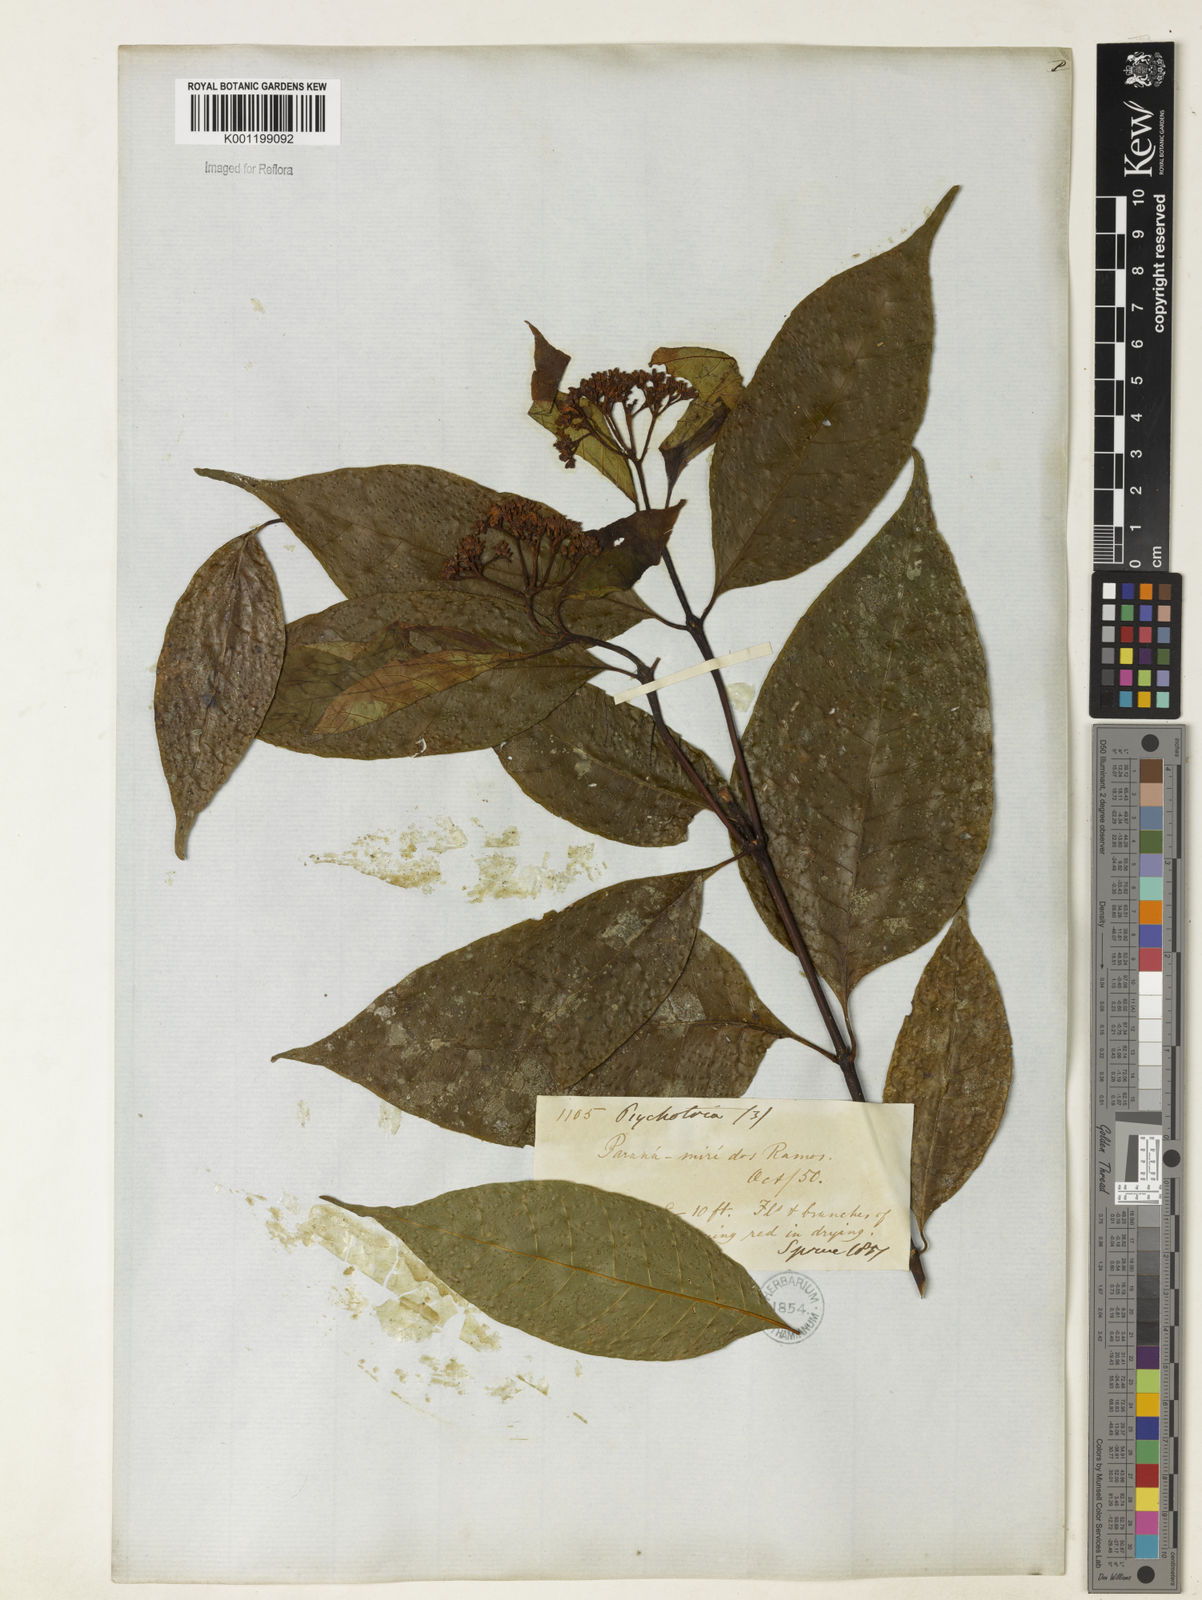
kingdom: Plantae
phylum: Tracheophyta
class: Magnoliopsida
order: Gentianales
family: Rubiaceae
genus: Palicourea
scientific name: Palicourea cuspidata
